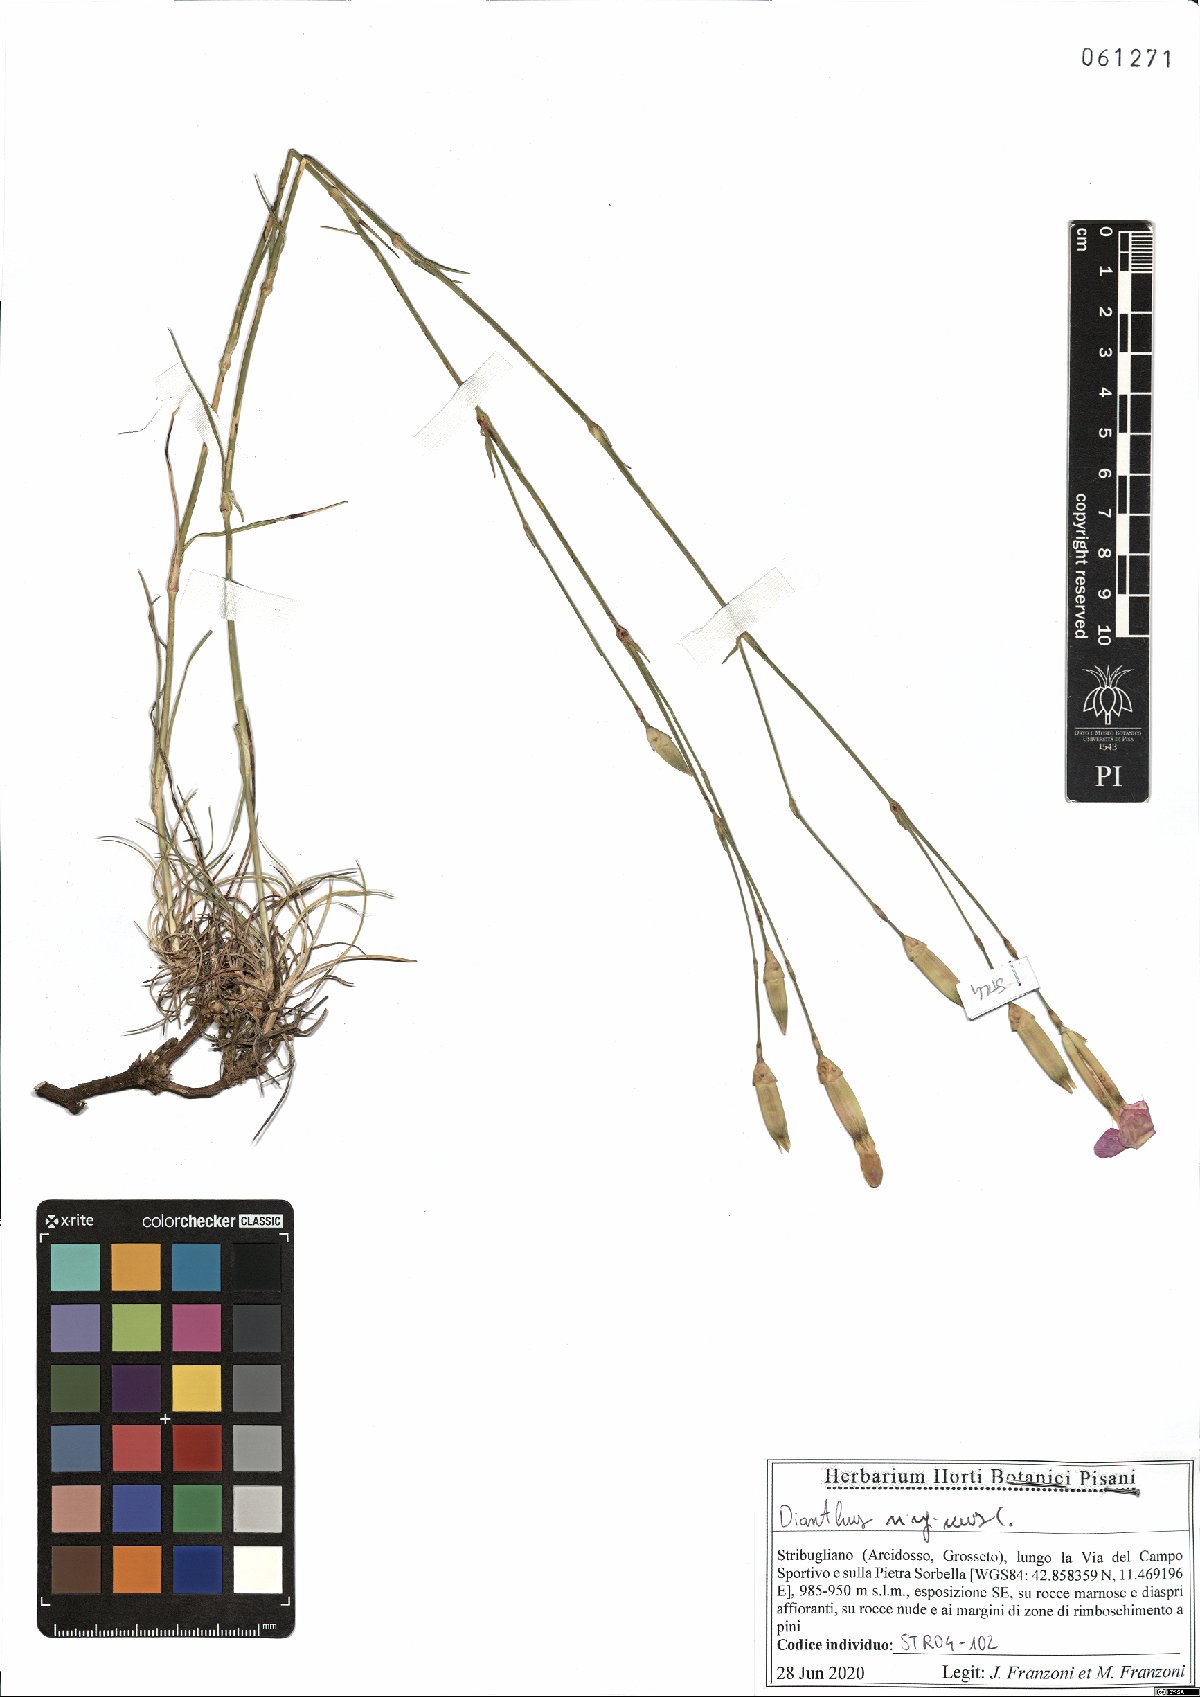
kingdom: Plantae
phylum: Tracheophyta
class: Magnoliopsida
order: Caryophyllales
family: Caryophyllaceae
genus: Dianthus
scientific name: Dianthus virgineus
